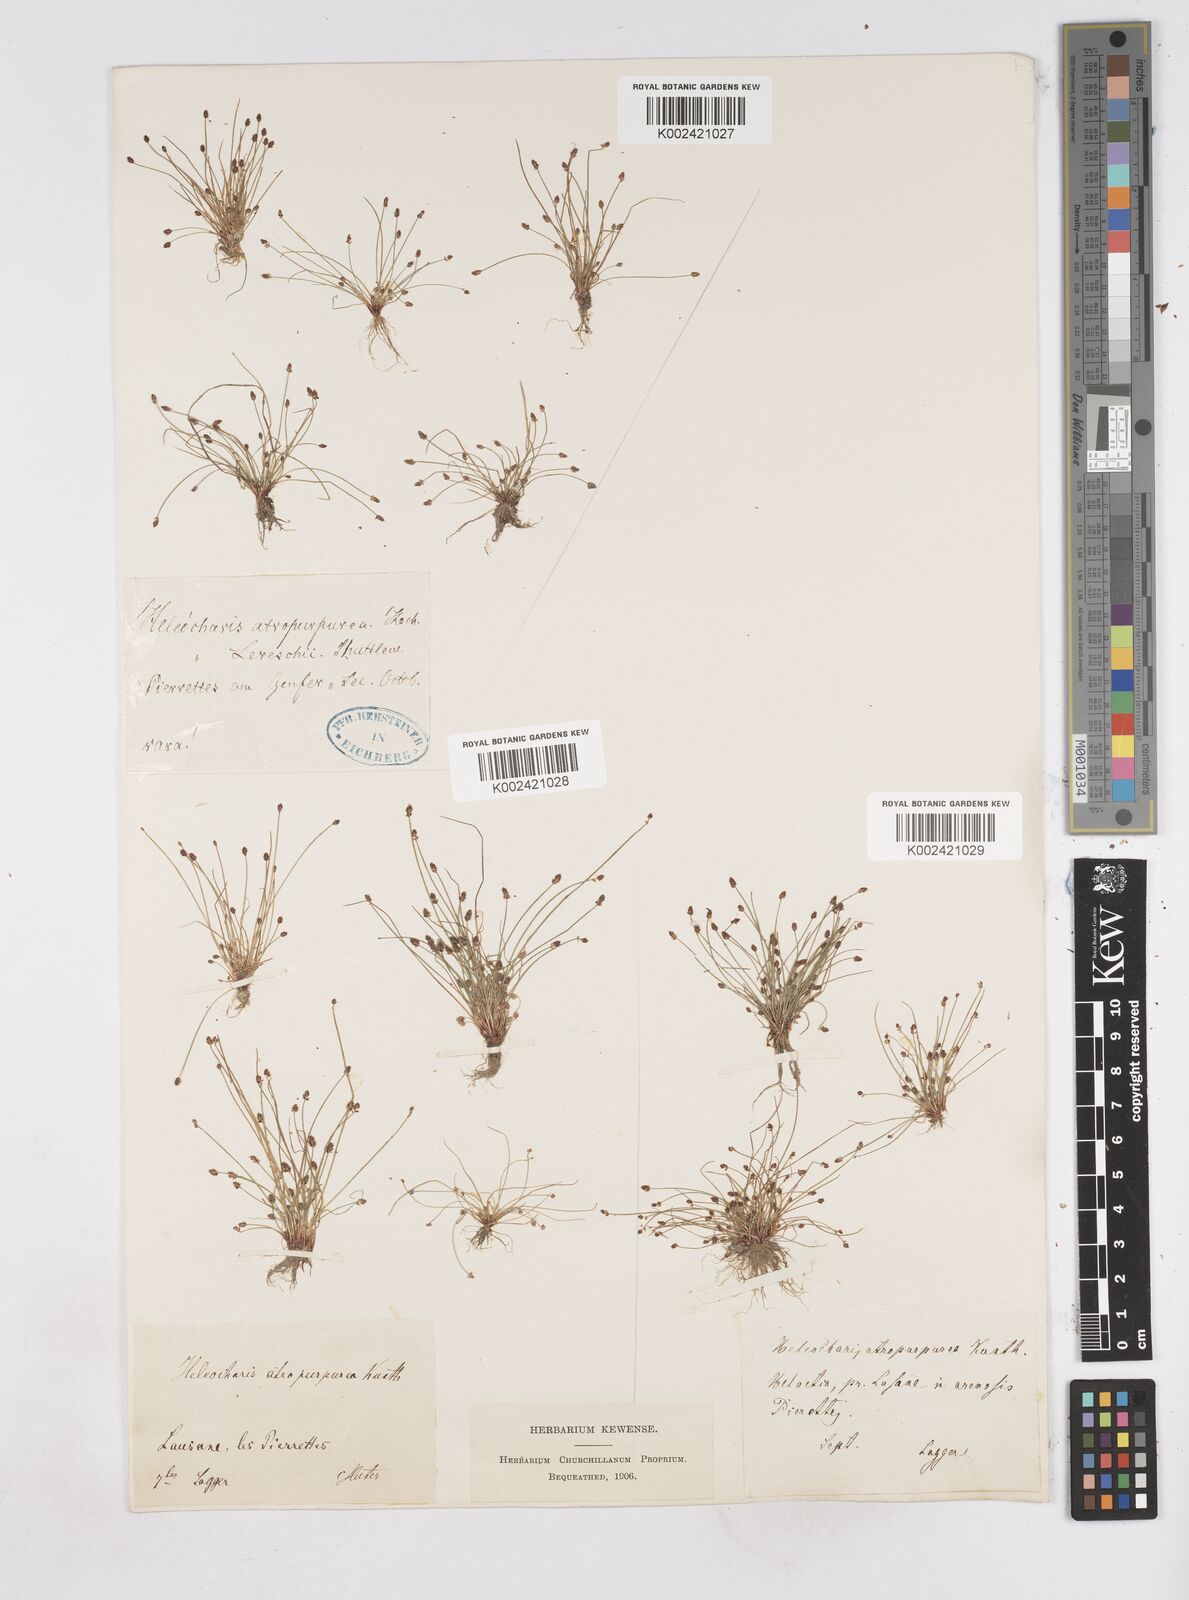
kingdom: Plantae
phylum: Tracheophyta
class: Liliopsida
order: Poales
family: Cyperaceae
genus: Eleocharis
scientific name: Eleocharis atropurpurea
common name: Purple spikerush
